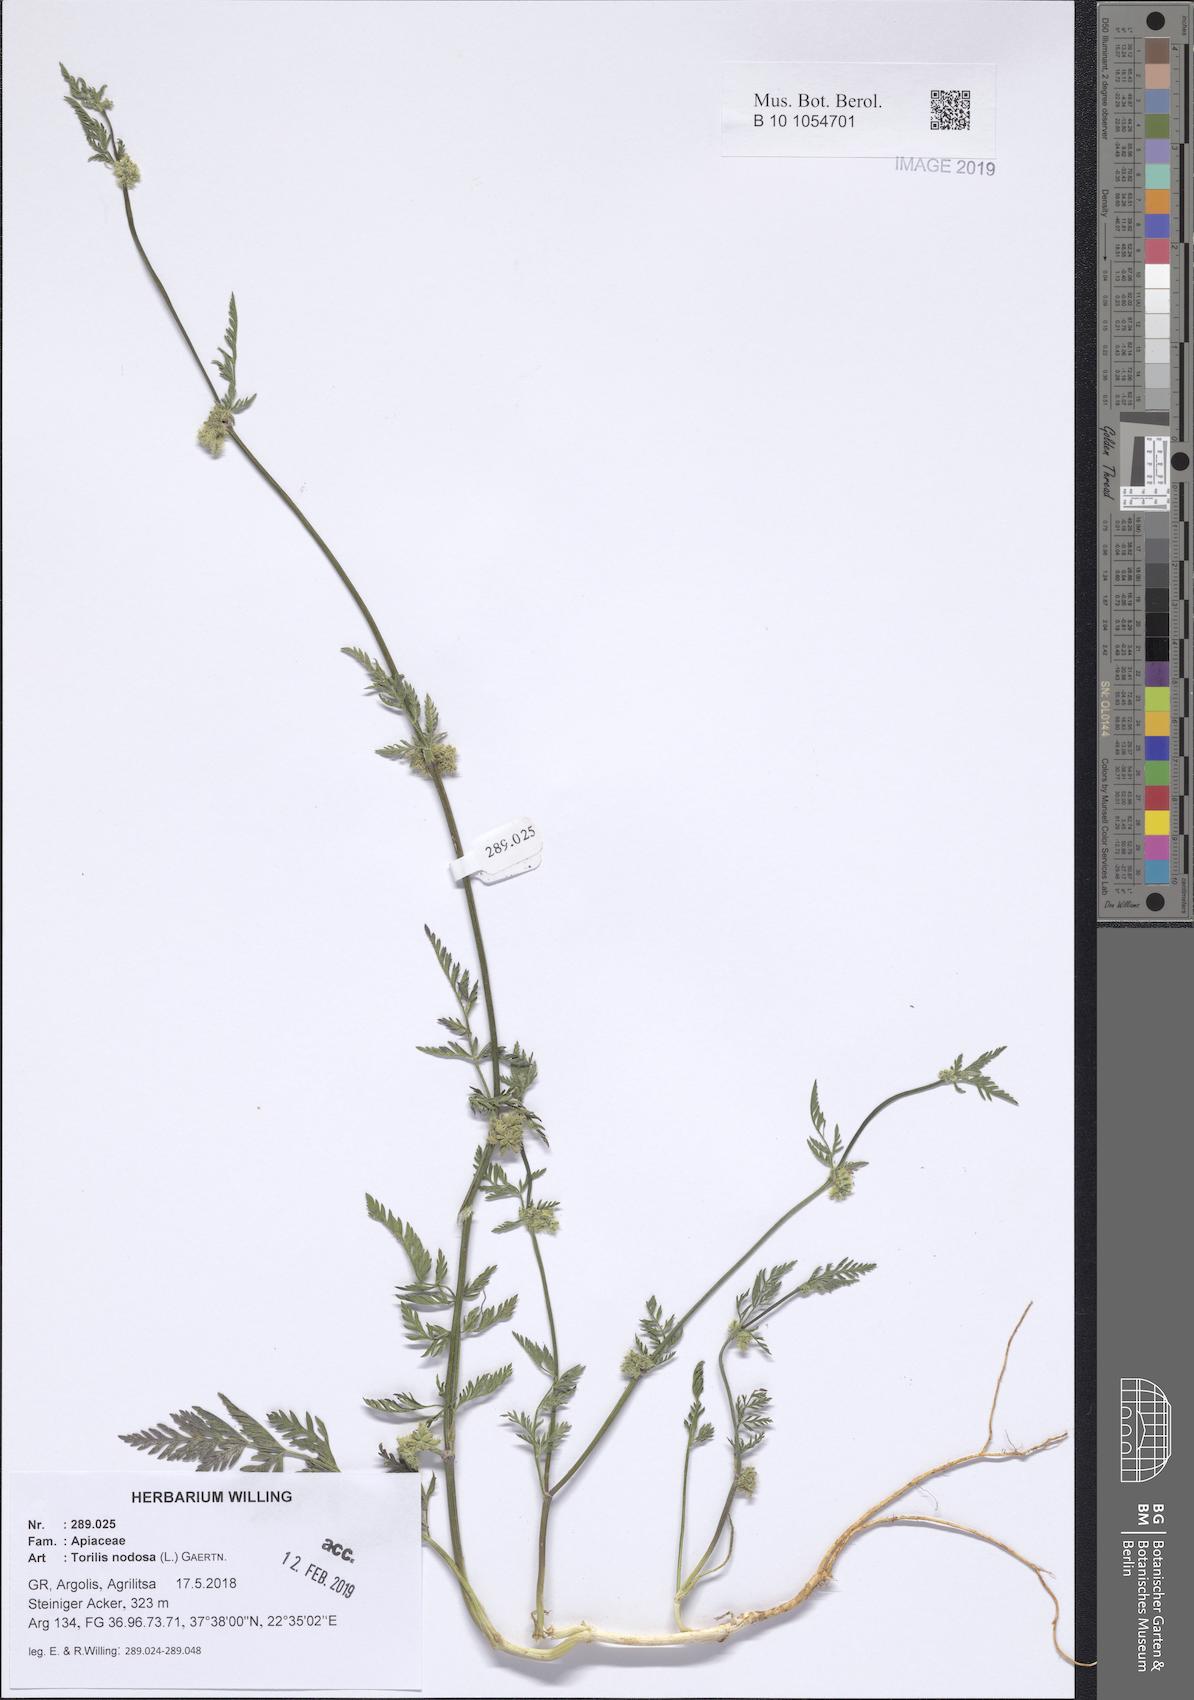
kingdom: Plantae
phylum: Tracheophyta
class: Magnoliopsida
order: Apiales
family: Apiaceae
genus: Torilis
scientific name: Torilis nodosa
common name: Knotted hedge-parsley
